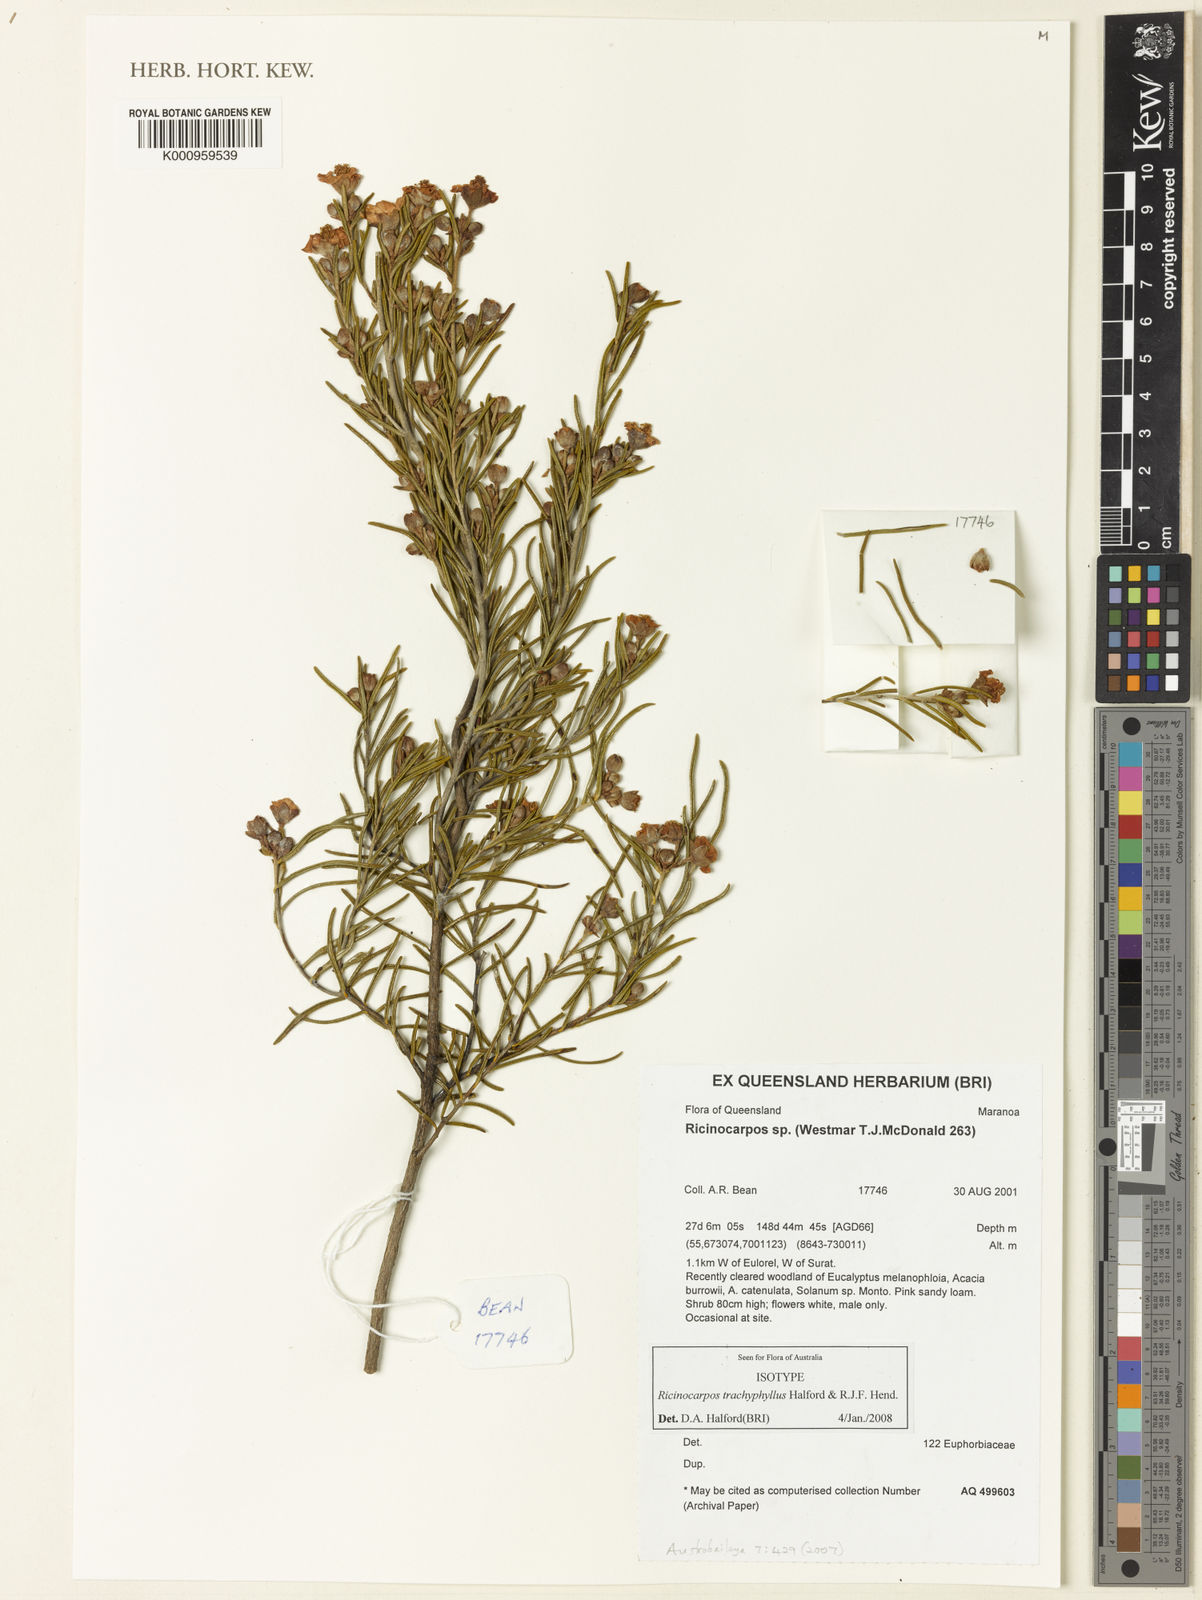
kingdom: Plantae
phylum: Tracheophyta
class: Magnoliopsida
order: Malpighiales
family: Euphorbiaceae
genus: Ricinocarpos
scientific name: Ricinocarpos trachyphyllus
